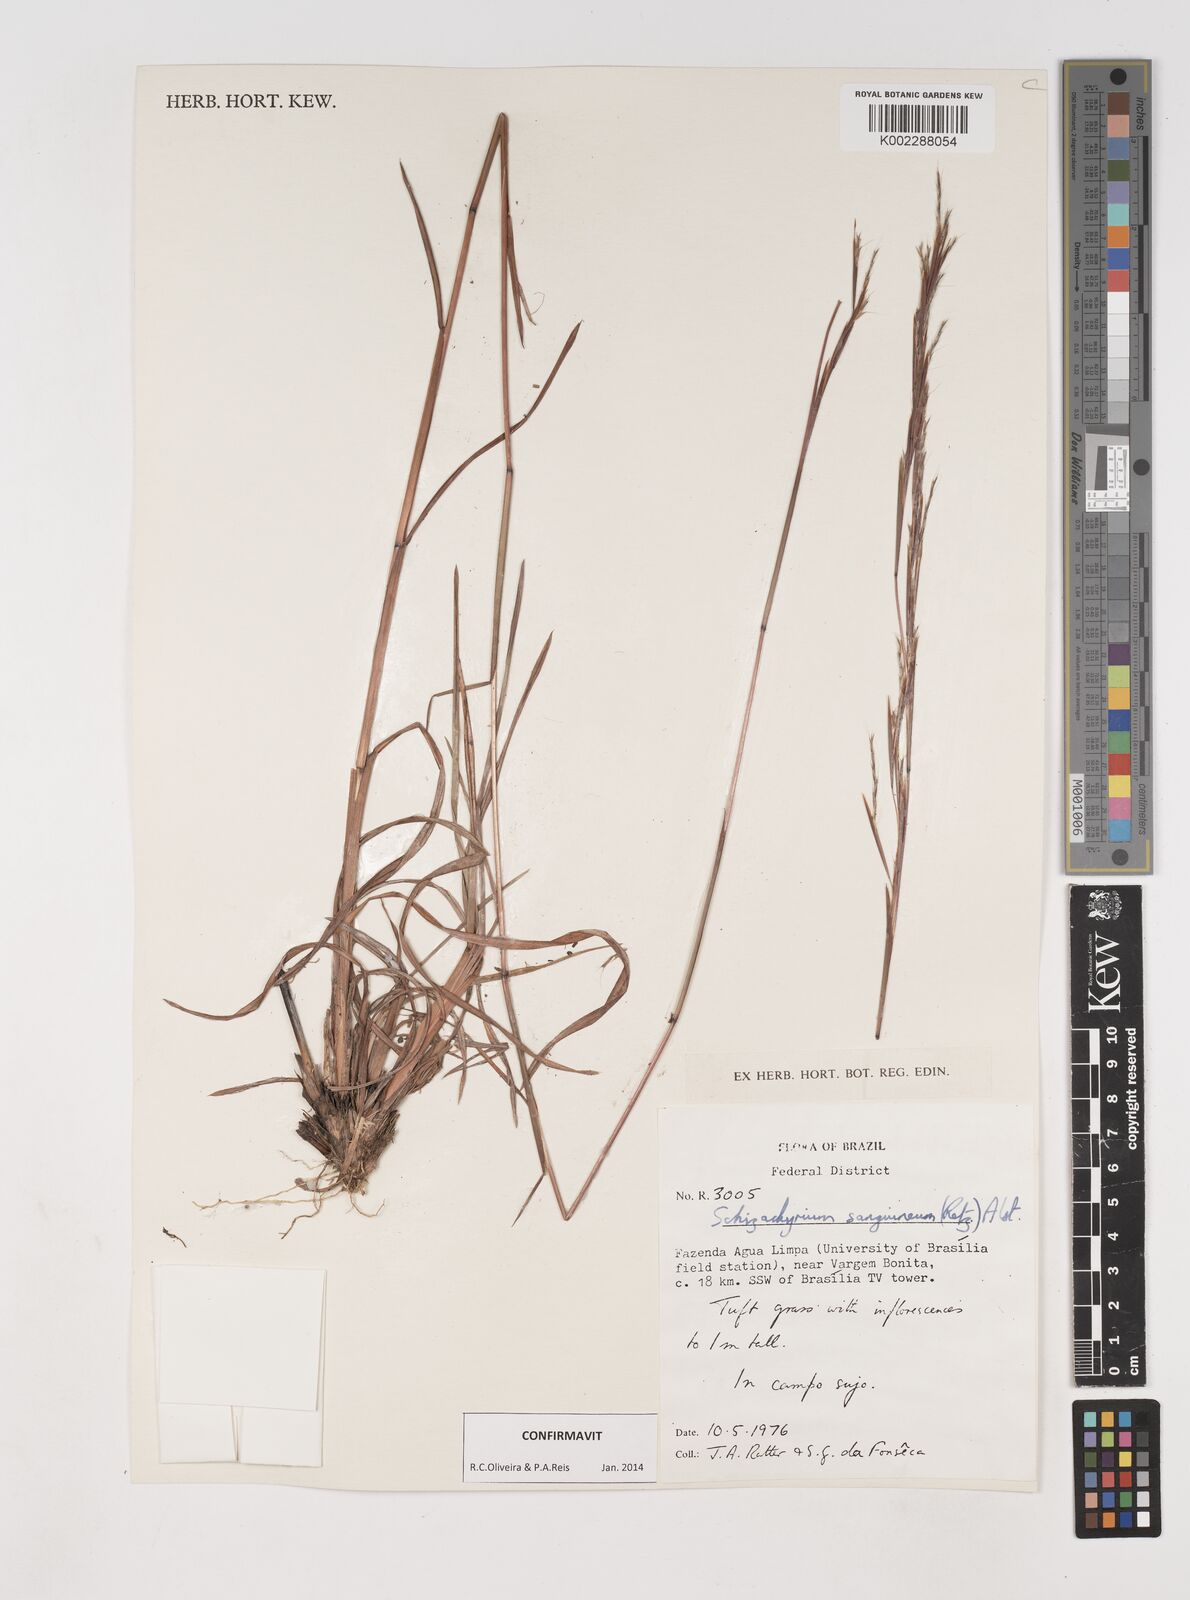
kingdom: Plantae
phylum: Tracheophyta
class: Liliopsida
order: Poales
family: Poaceae
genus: Schizachyrium
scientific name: Schizachyrium sanguineum
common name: Crimson bluestem
